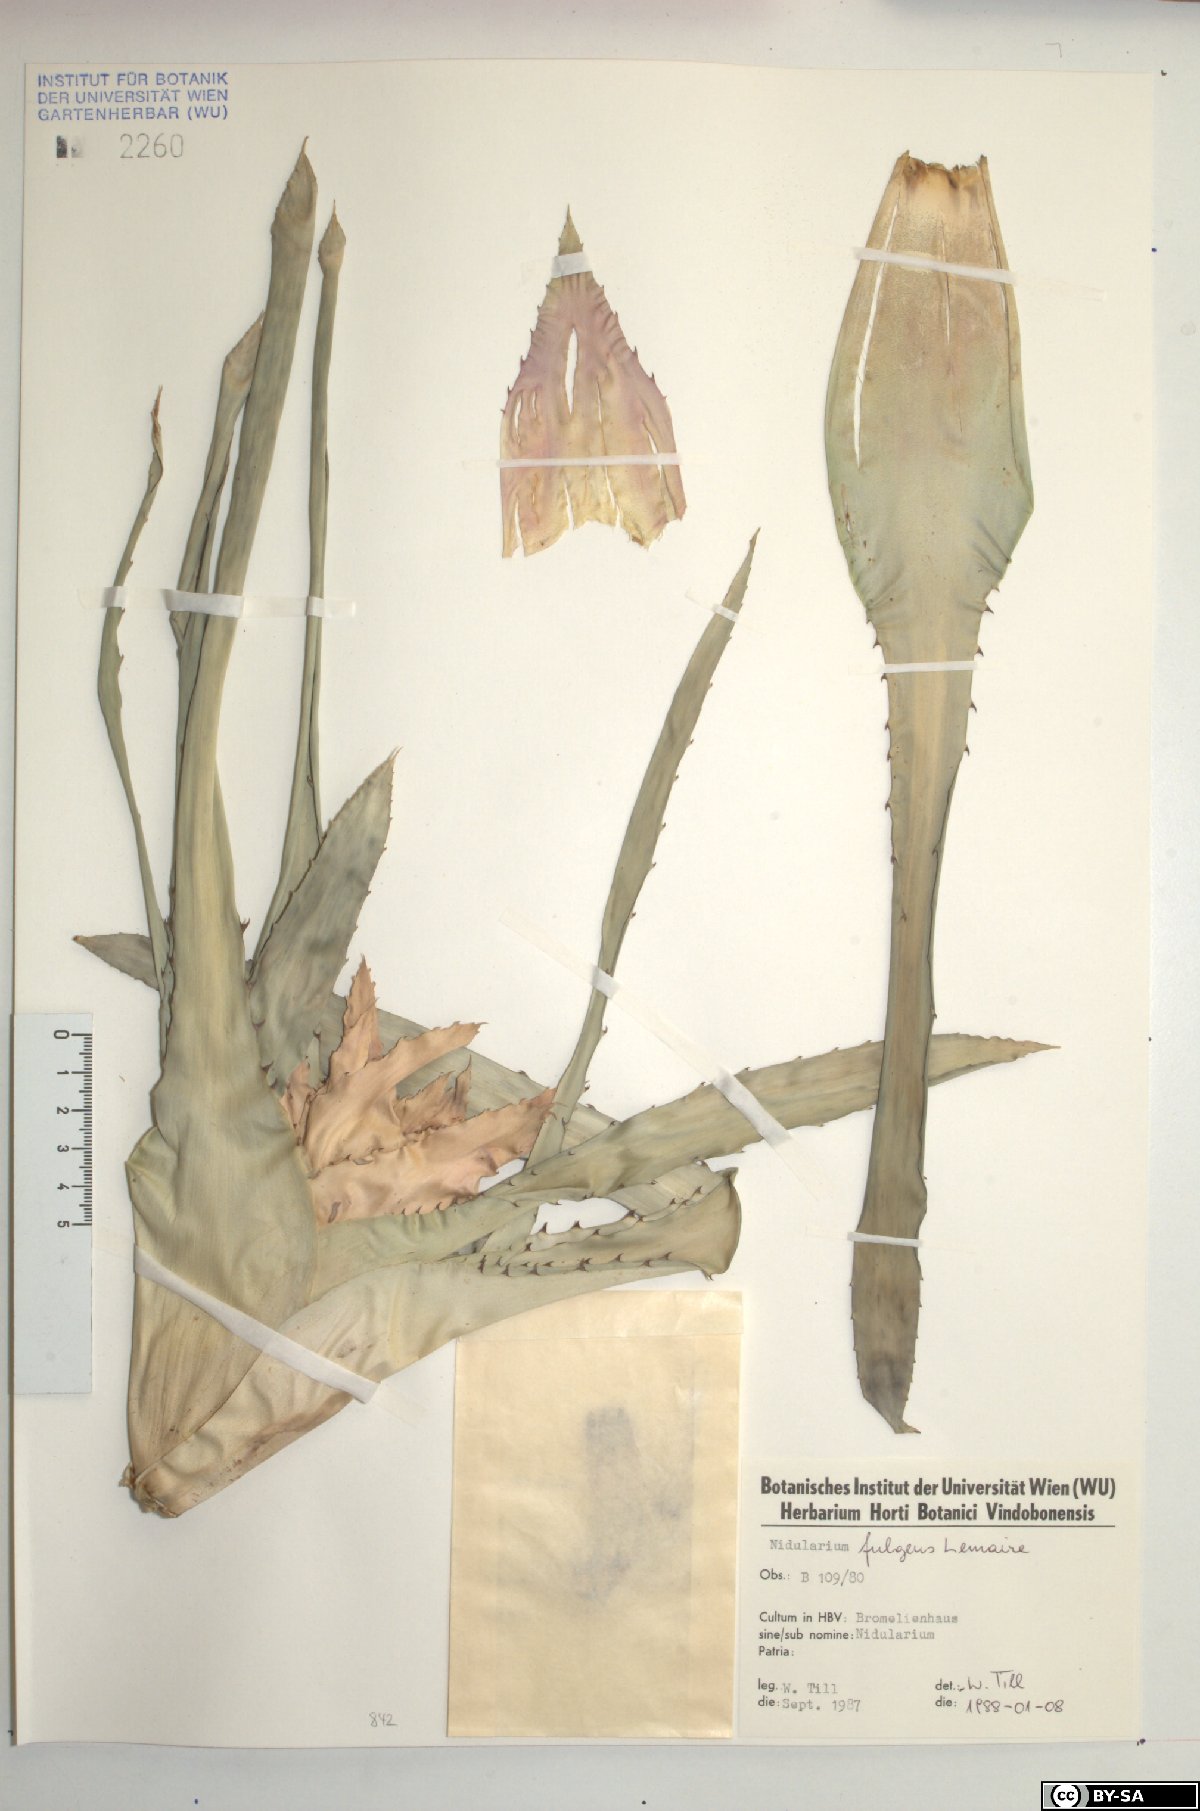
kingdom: Plantae
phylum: Tracheophyta
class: Liliopsida
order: Poales
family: Bromeliaceae
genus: Nidularium
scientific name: Nidularium fulgens
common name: Blushing bromeliad
